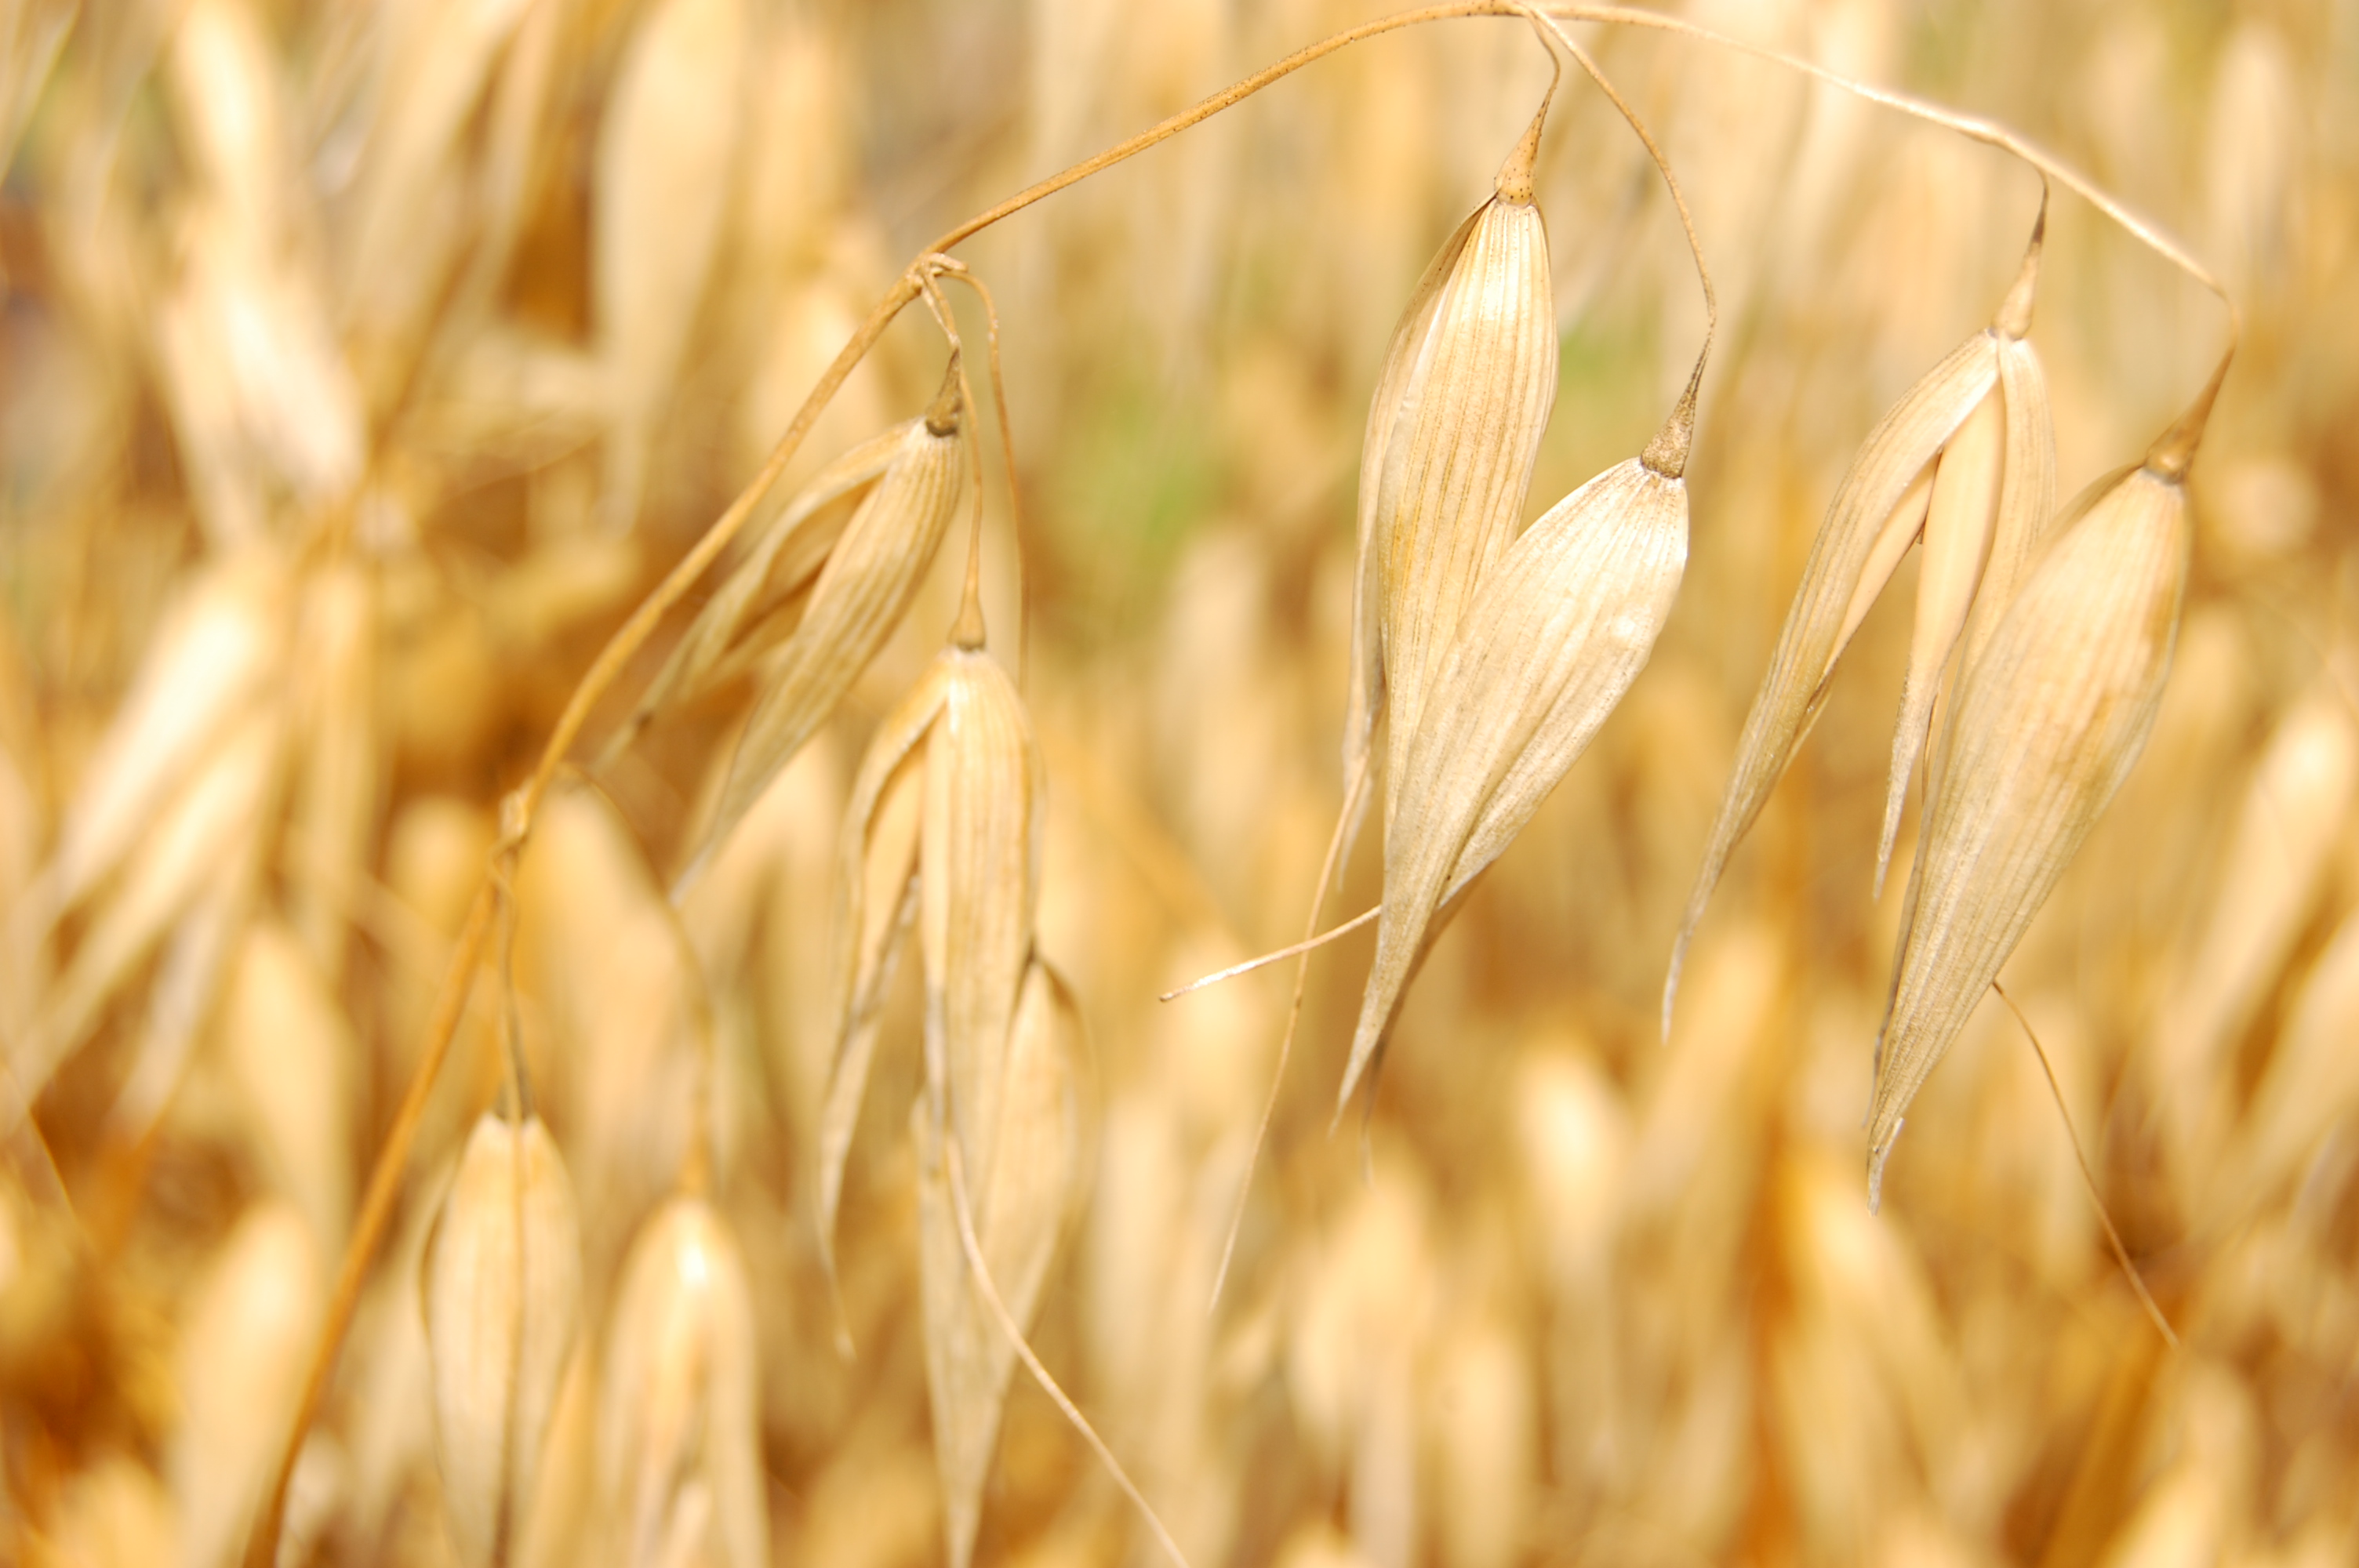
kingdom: Plantae
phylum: Tracheophyta
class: Liliopsida
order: Poales
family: Poaceae
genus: Avena
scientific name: Avena sativa
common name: Oat
